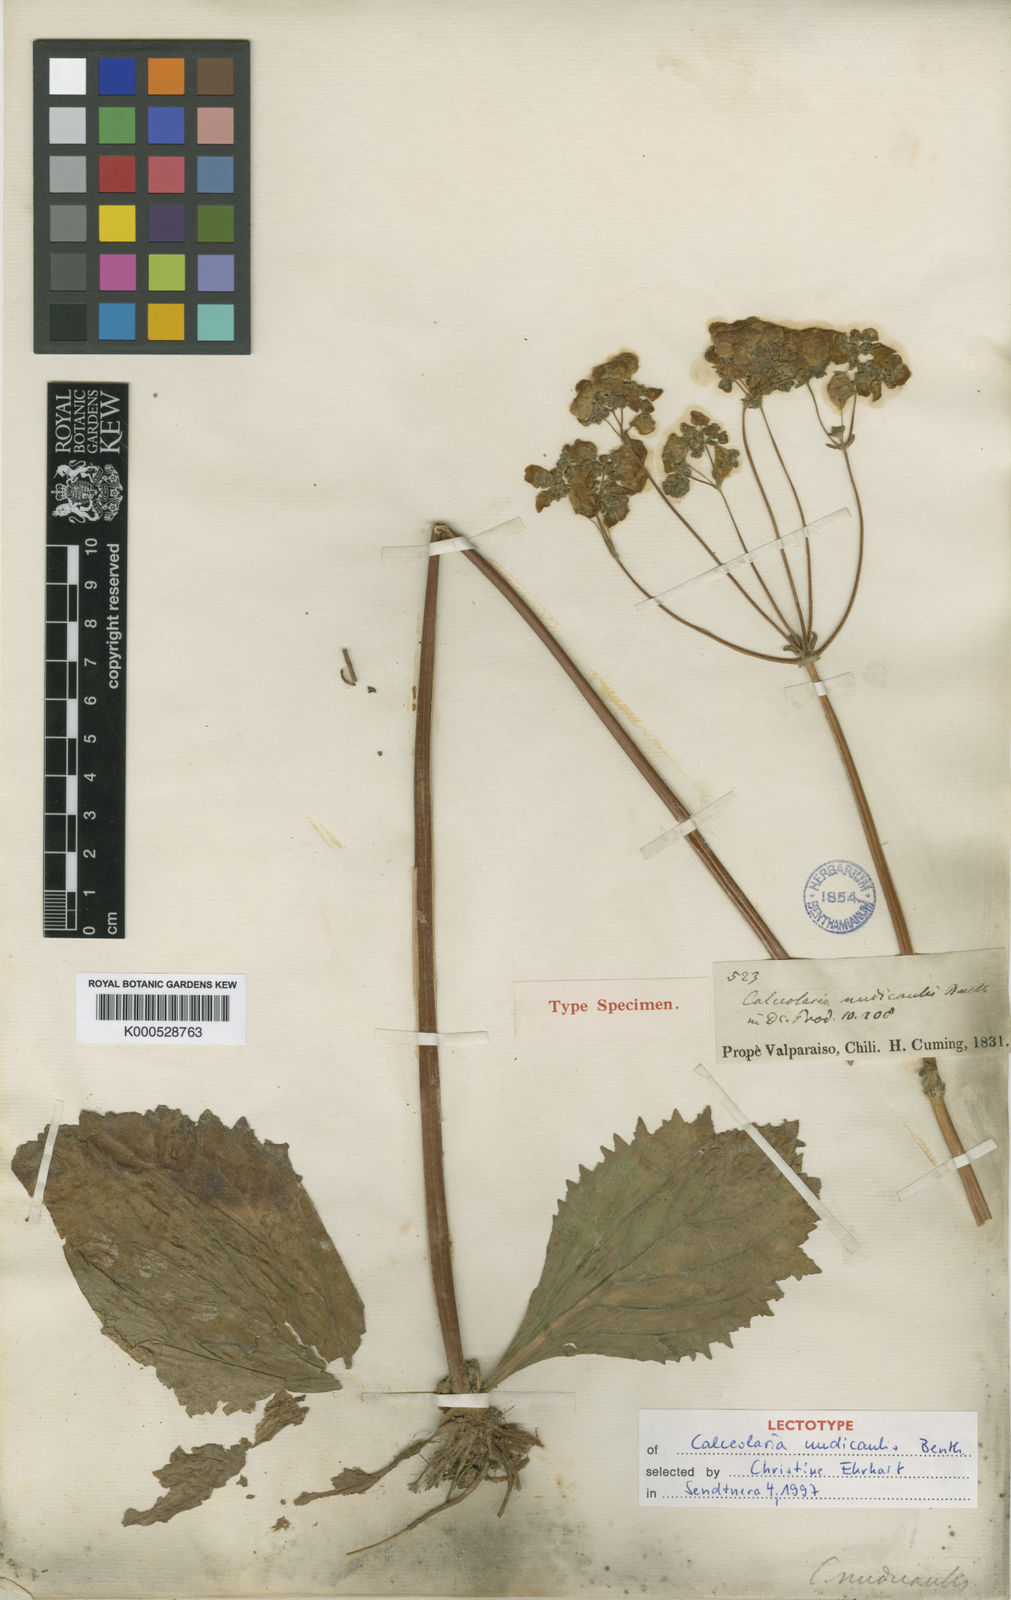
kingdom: Plantae
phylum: Tracheophyta
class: Magnoliopsida
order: Lamiales
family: Calceolariaceae
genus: Calceolaria
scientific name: Calceolaria nudicaulis
